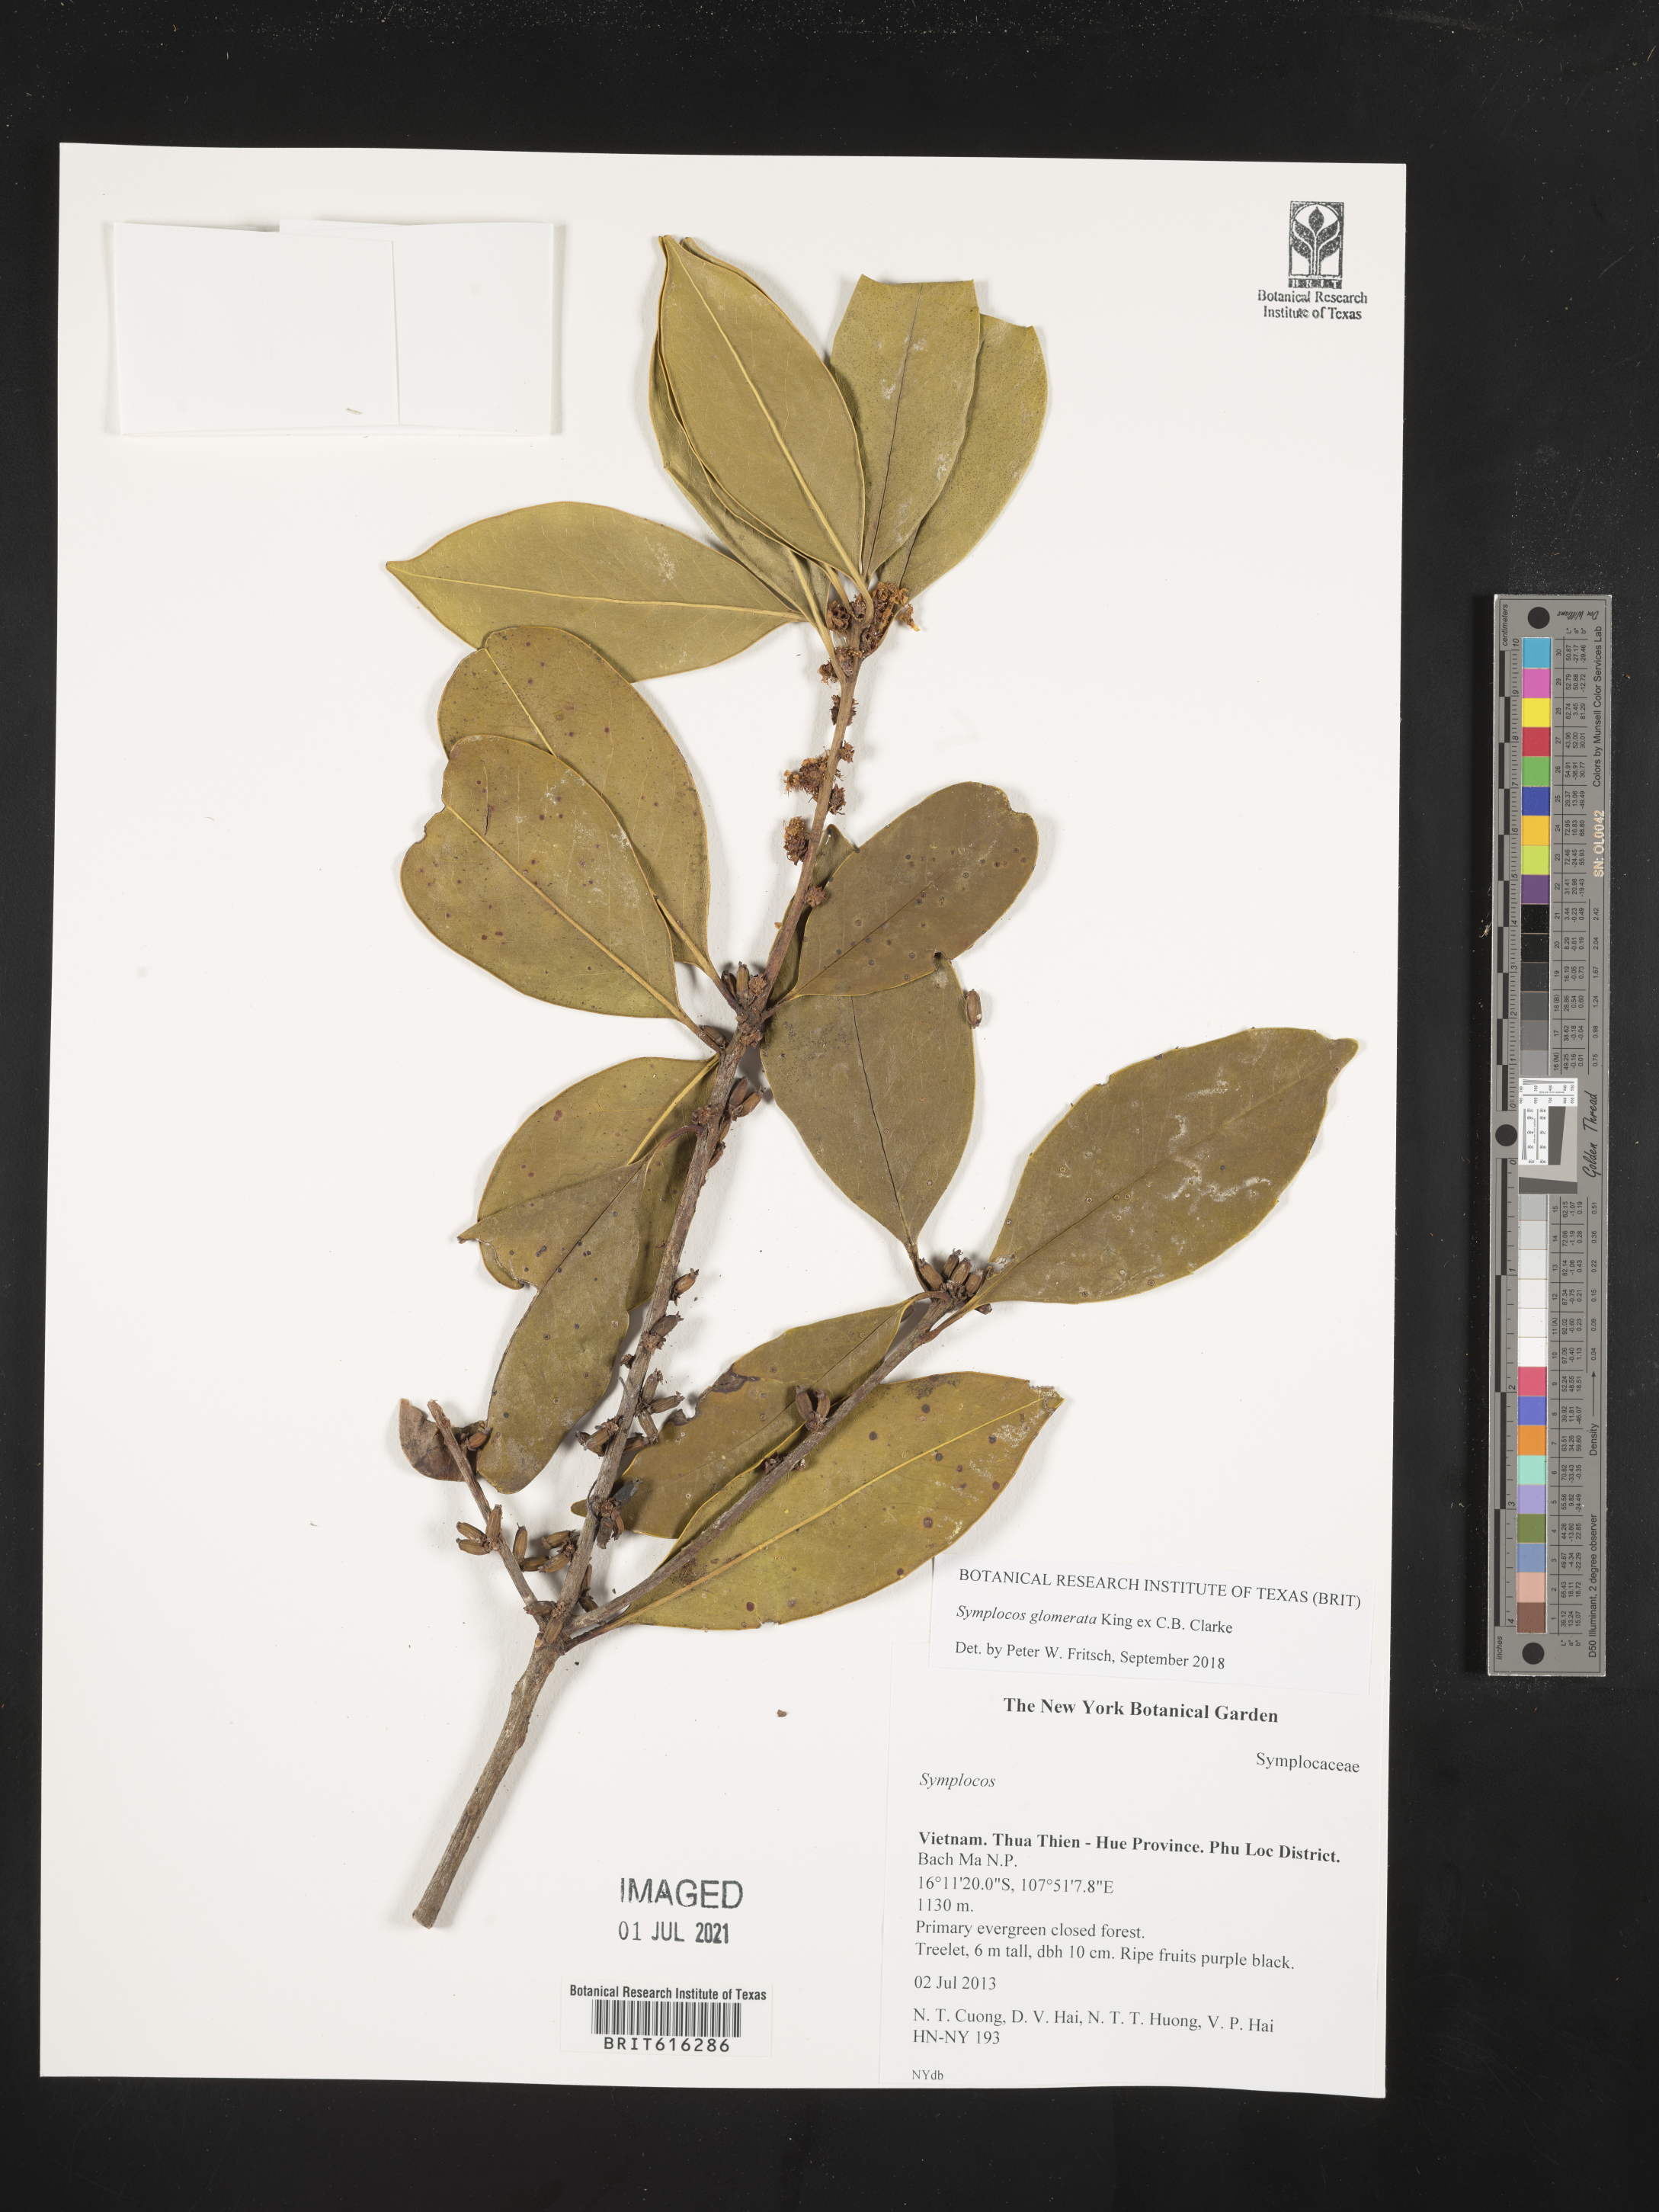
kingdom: Plantae
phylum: Tracheophyta
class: Magnoliopsida
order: Ericales
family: Symplocaceae
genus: Symplocos
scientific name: Symplocos
